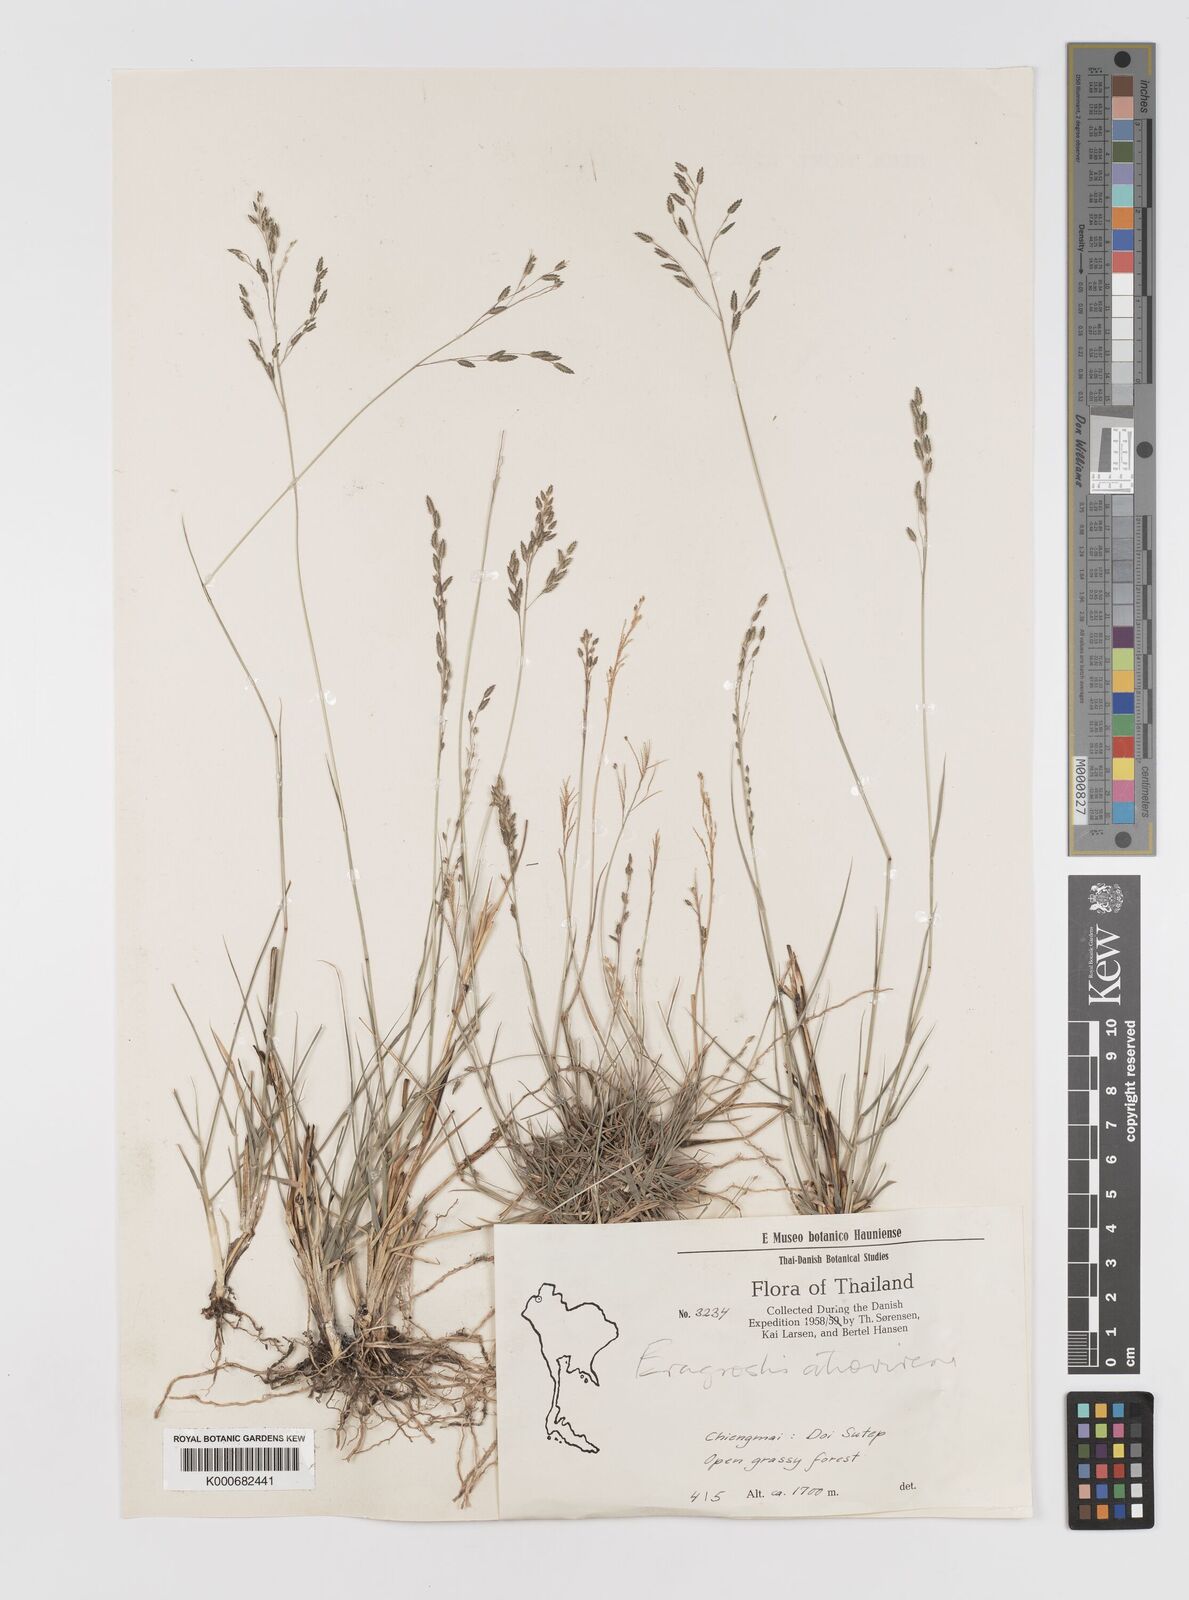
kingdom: Plantae
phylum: Tracheophyta
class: Liliopsida
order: Poales
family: Poaceae
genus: Eragrostis
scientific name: Eragrostis
